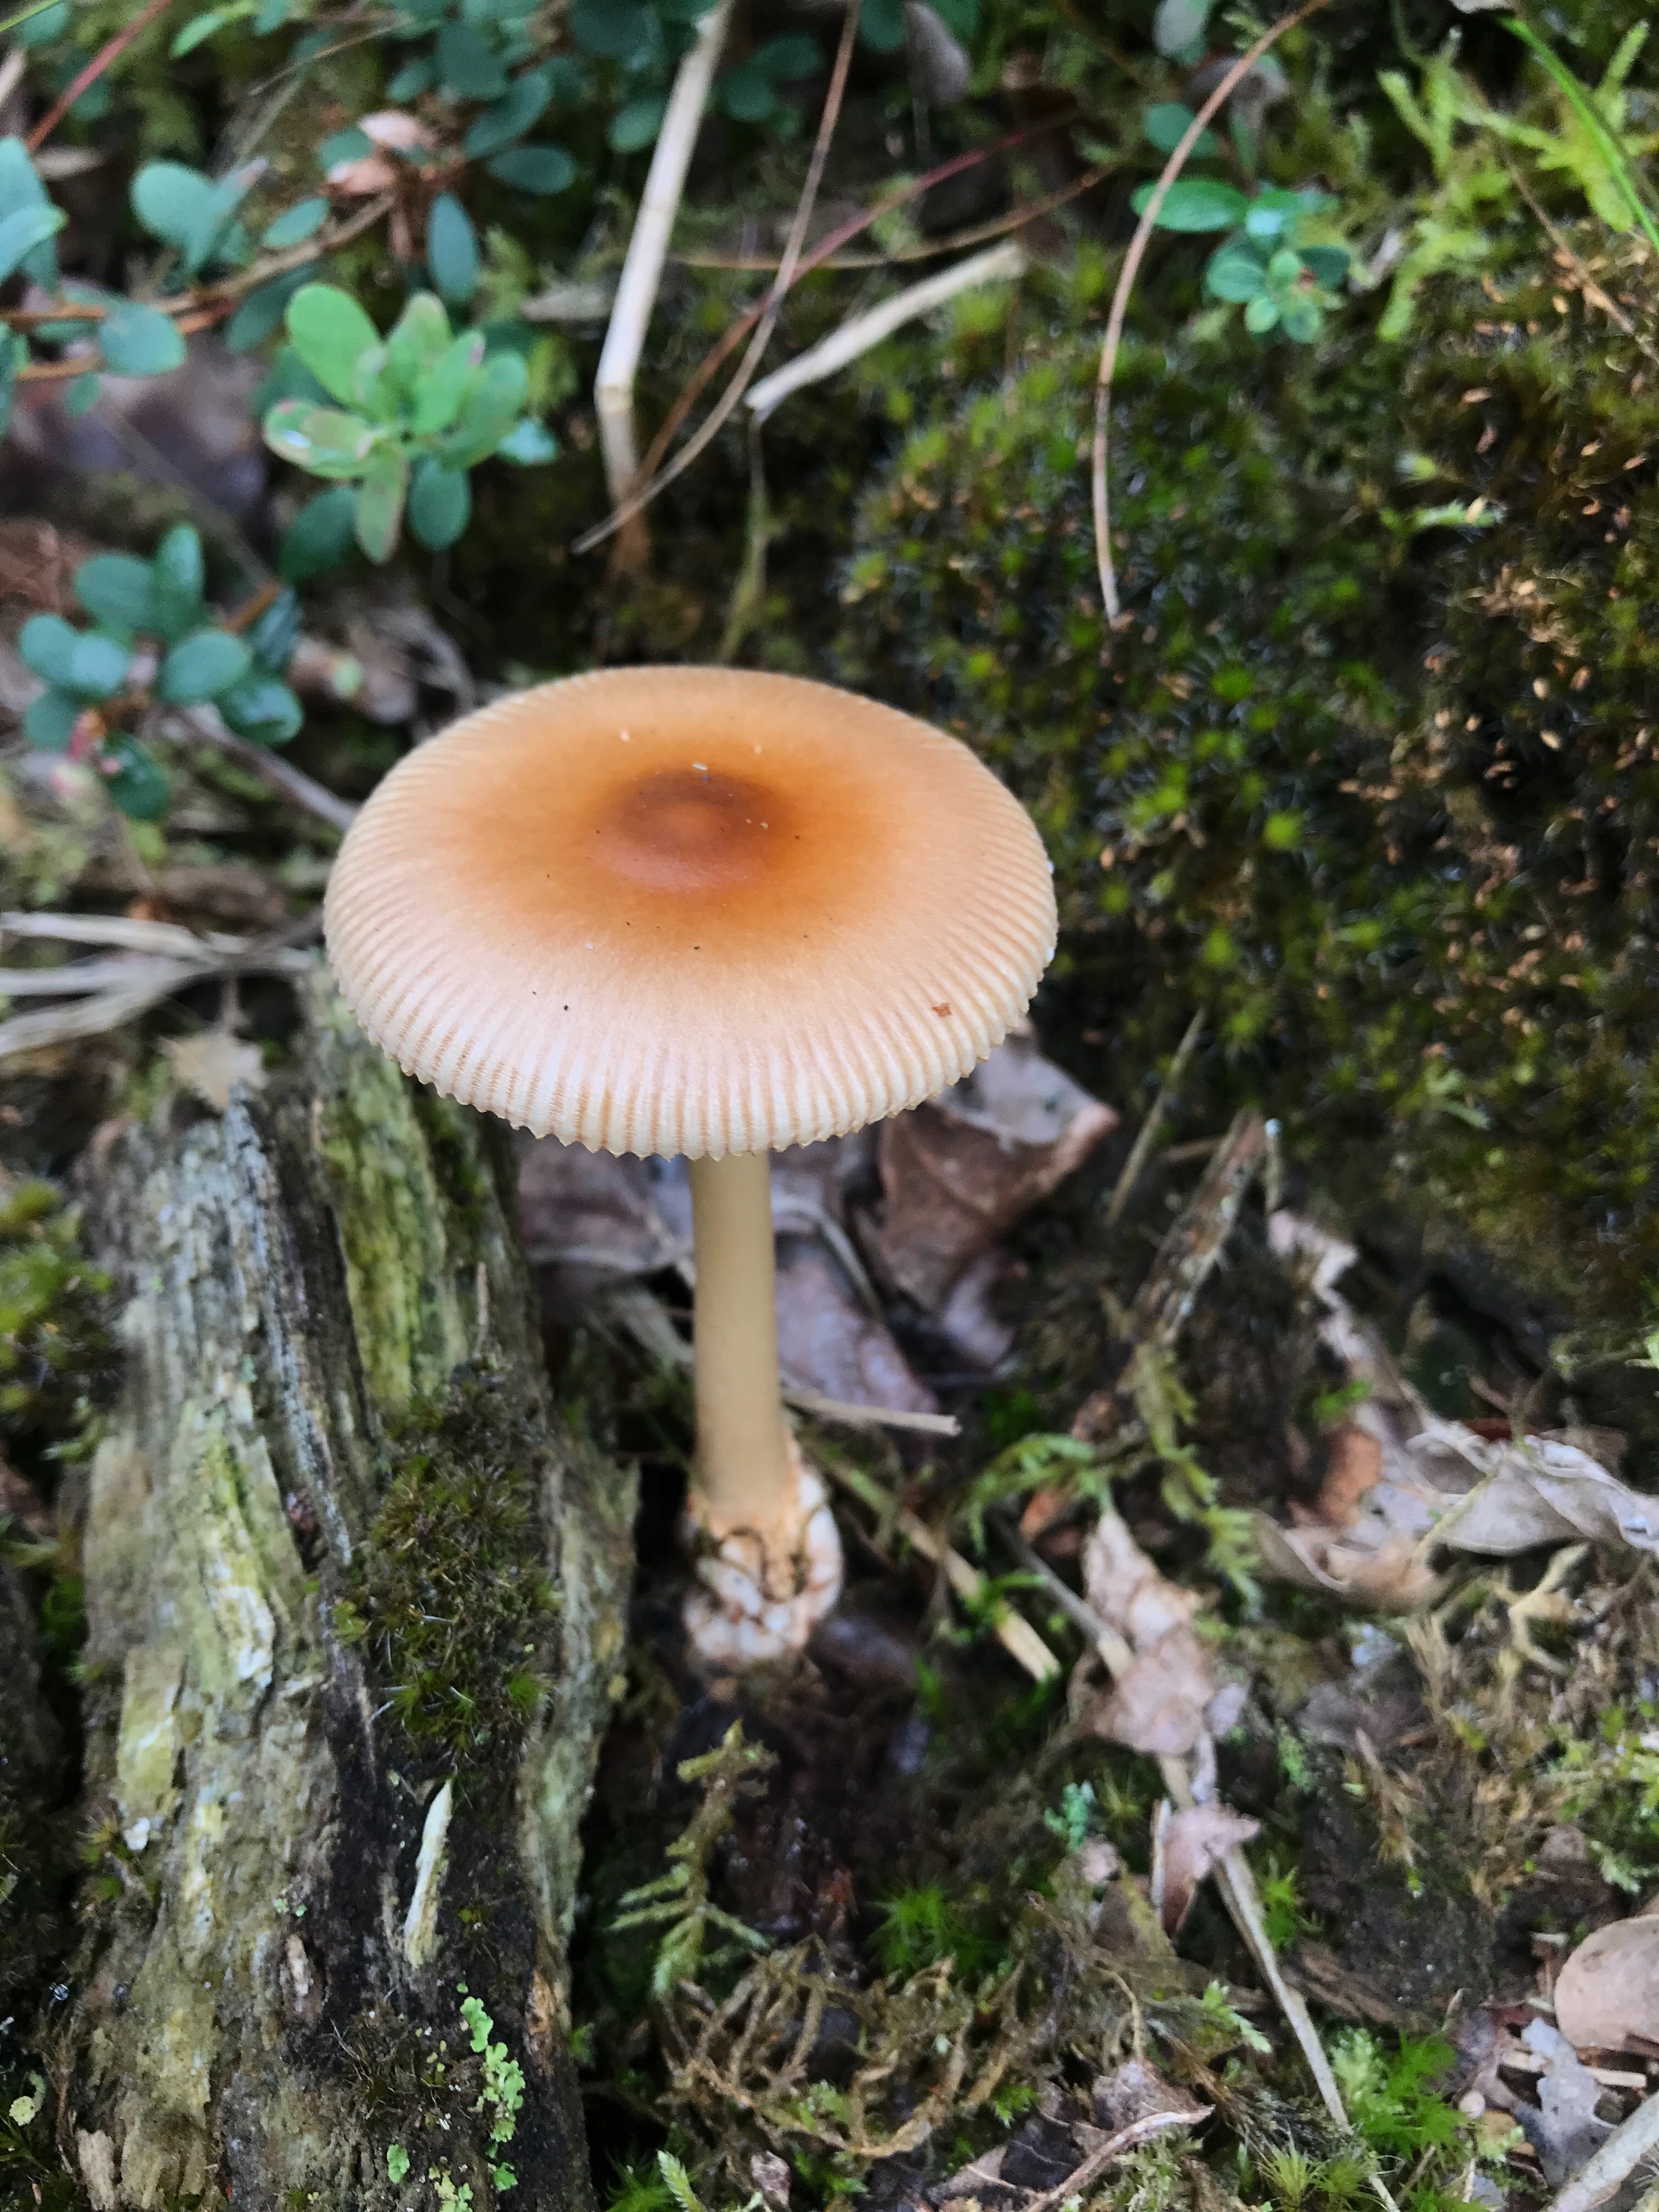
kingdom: Fungi
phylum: Basidiomycota
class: Agaricomycetes
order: Agaricales
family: Amanitaceae
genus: Amanita
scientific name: Amanita fulva
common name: brun kam-fluesvamp
